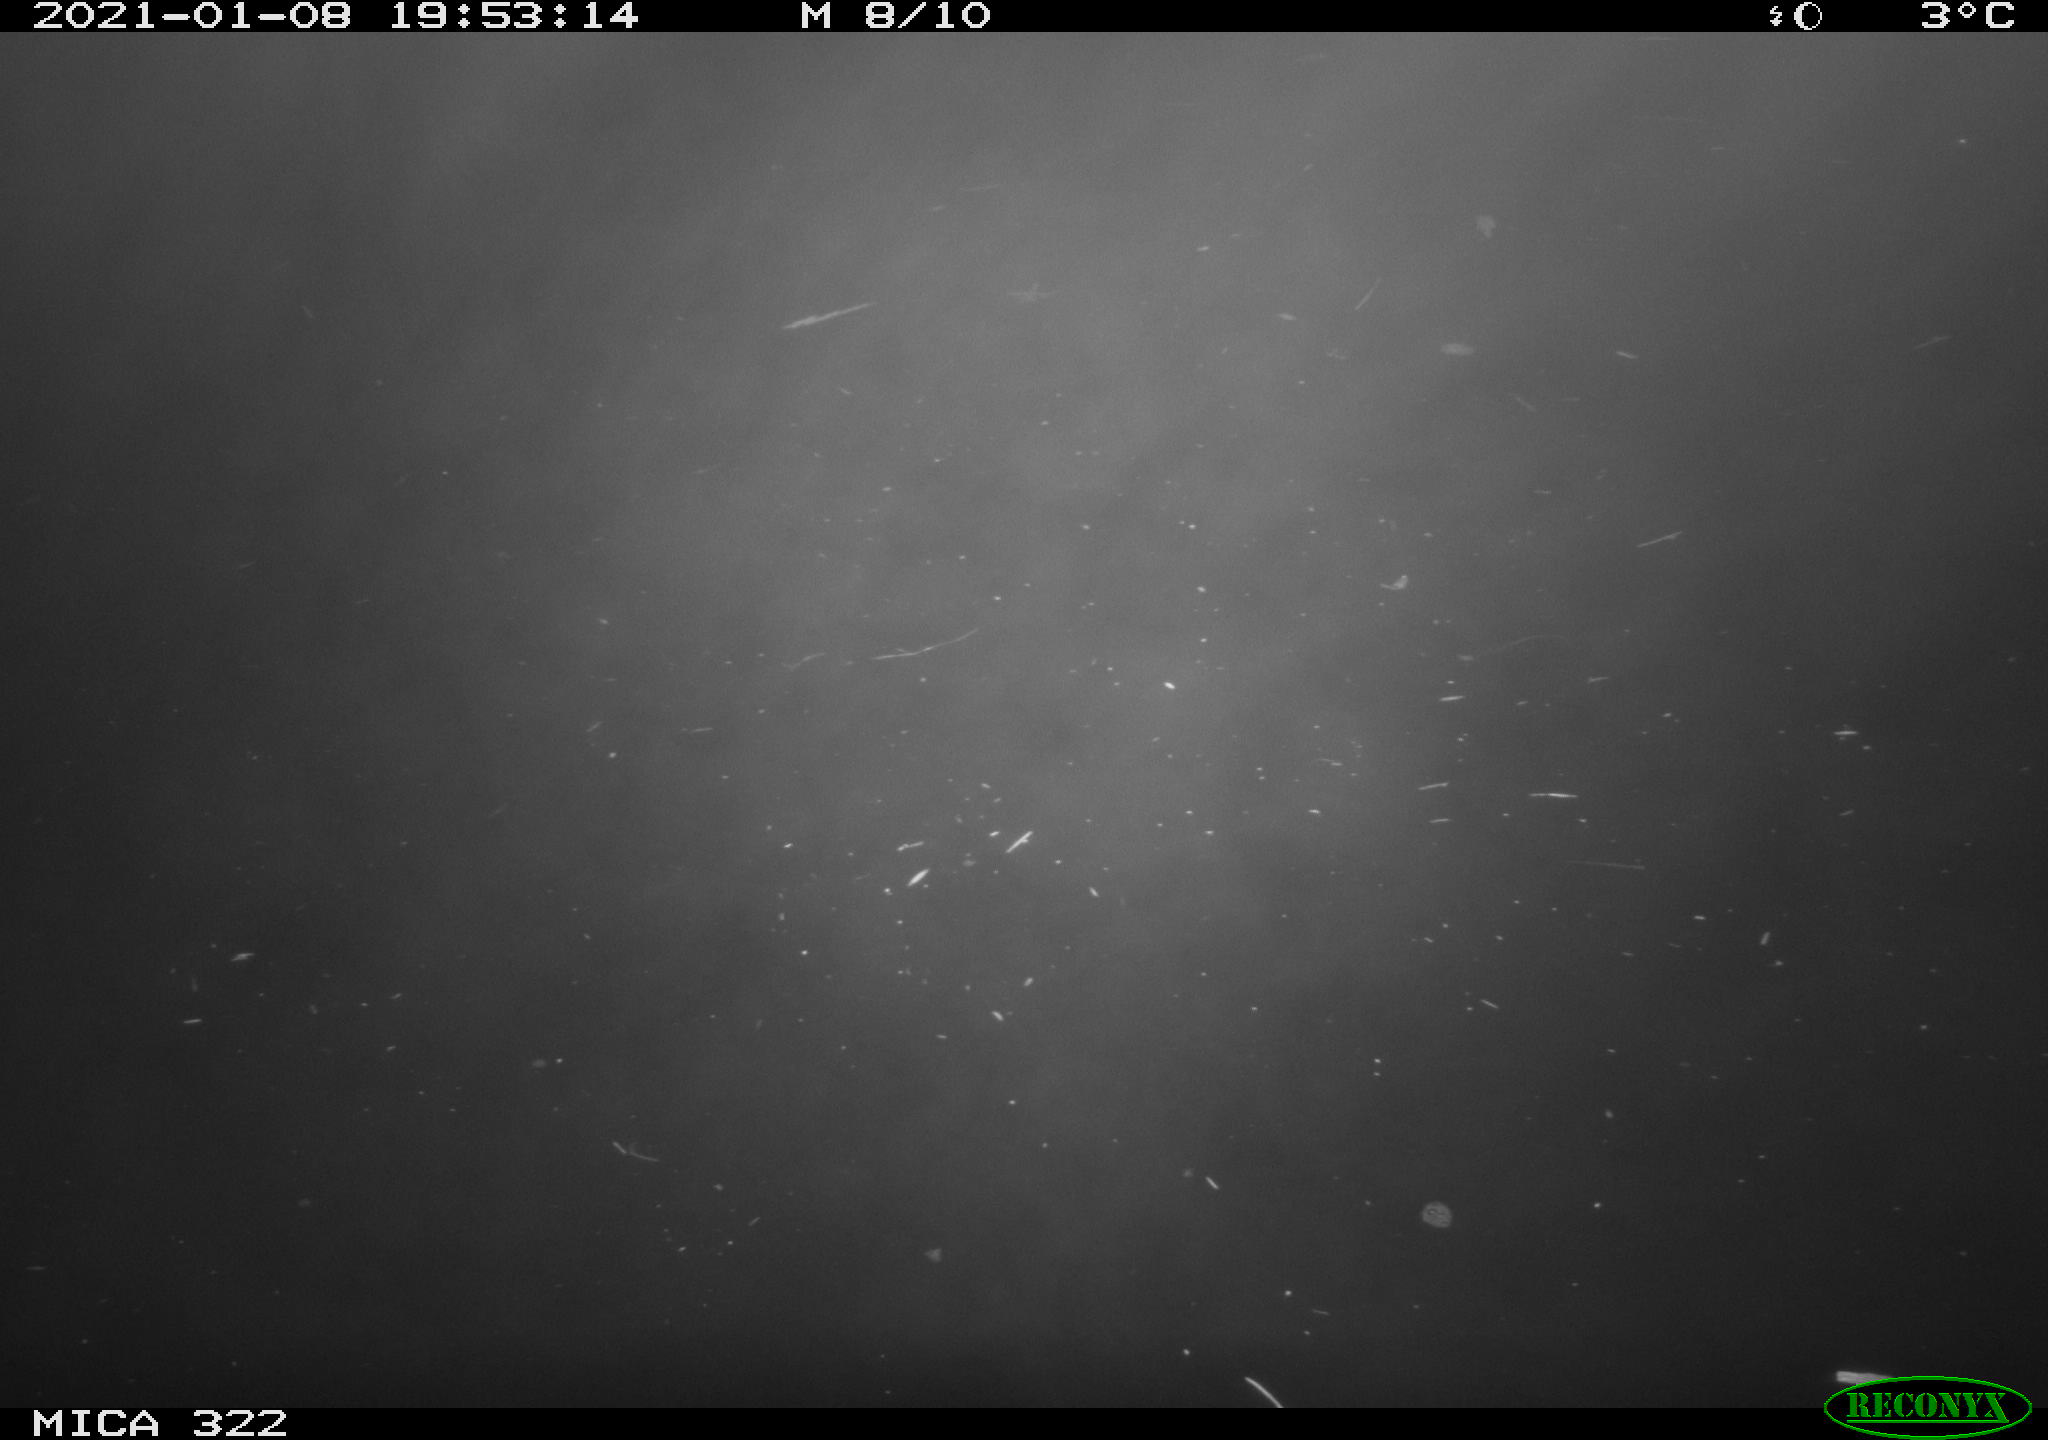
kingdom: Animalia
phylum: Chordata
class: Mammalia
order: Rodentia
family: Muridae
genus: Rattus
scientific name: Rattus norvegicus
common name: Brown rat
